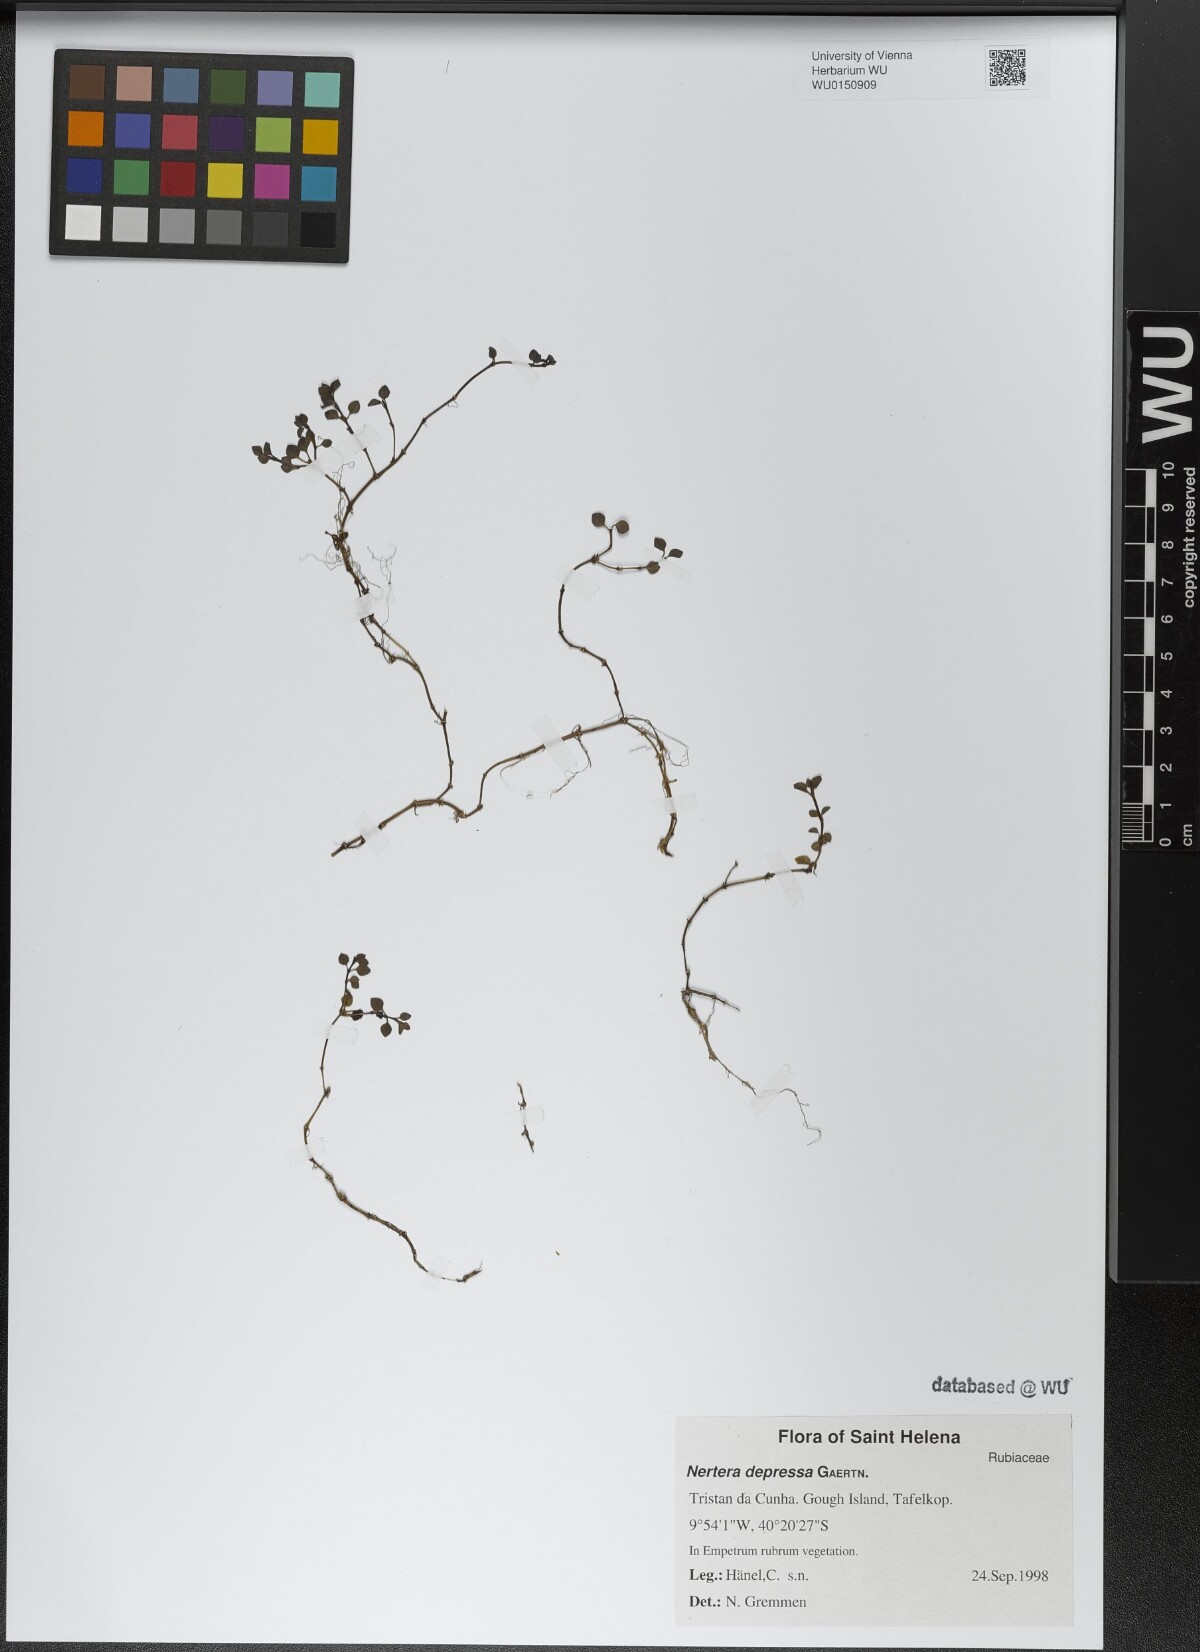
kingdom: Plantae
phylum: Tracheophyta
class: Magnoliopsida
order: Gentianales
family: Rubiaceae
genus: Nertera
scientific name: Nertera granadensis
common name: Beadplant
